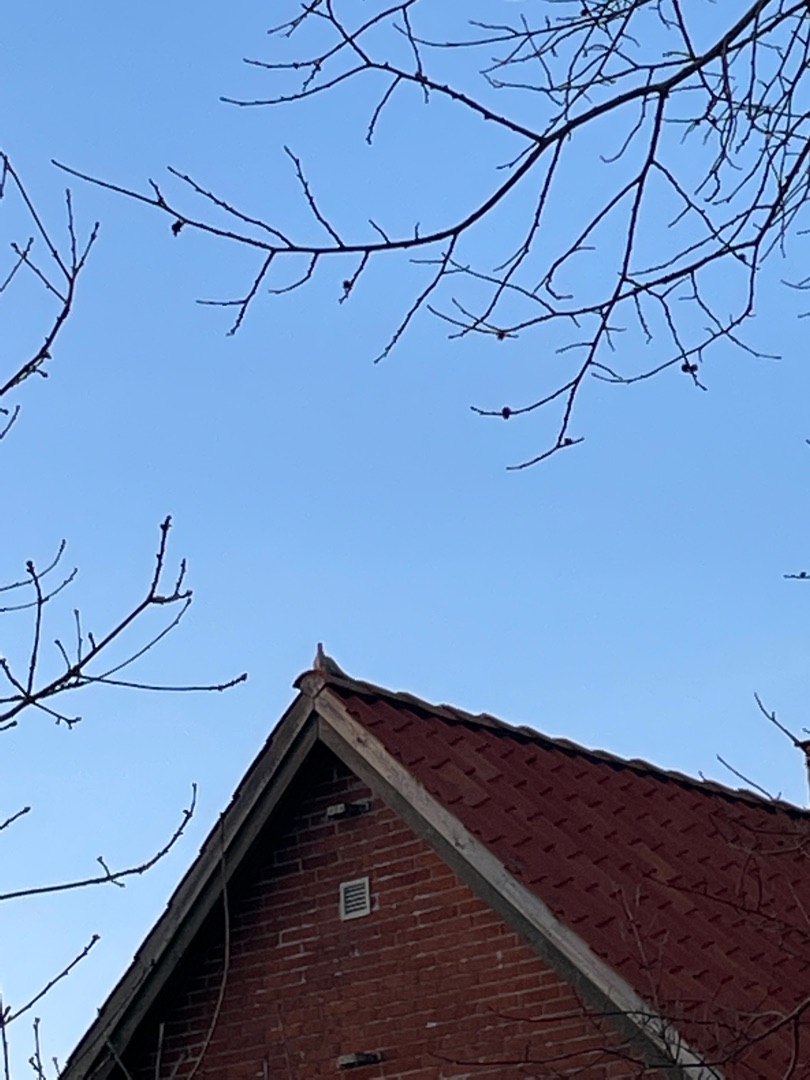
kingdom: Animalia
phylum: Chordata
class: Aves
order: Columbiformes
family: Columbidae
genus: Streptopelia
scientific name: Streptopelia decaocto
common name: Tyrkerdue
